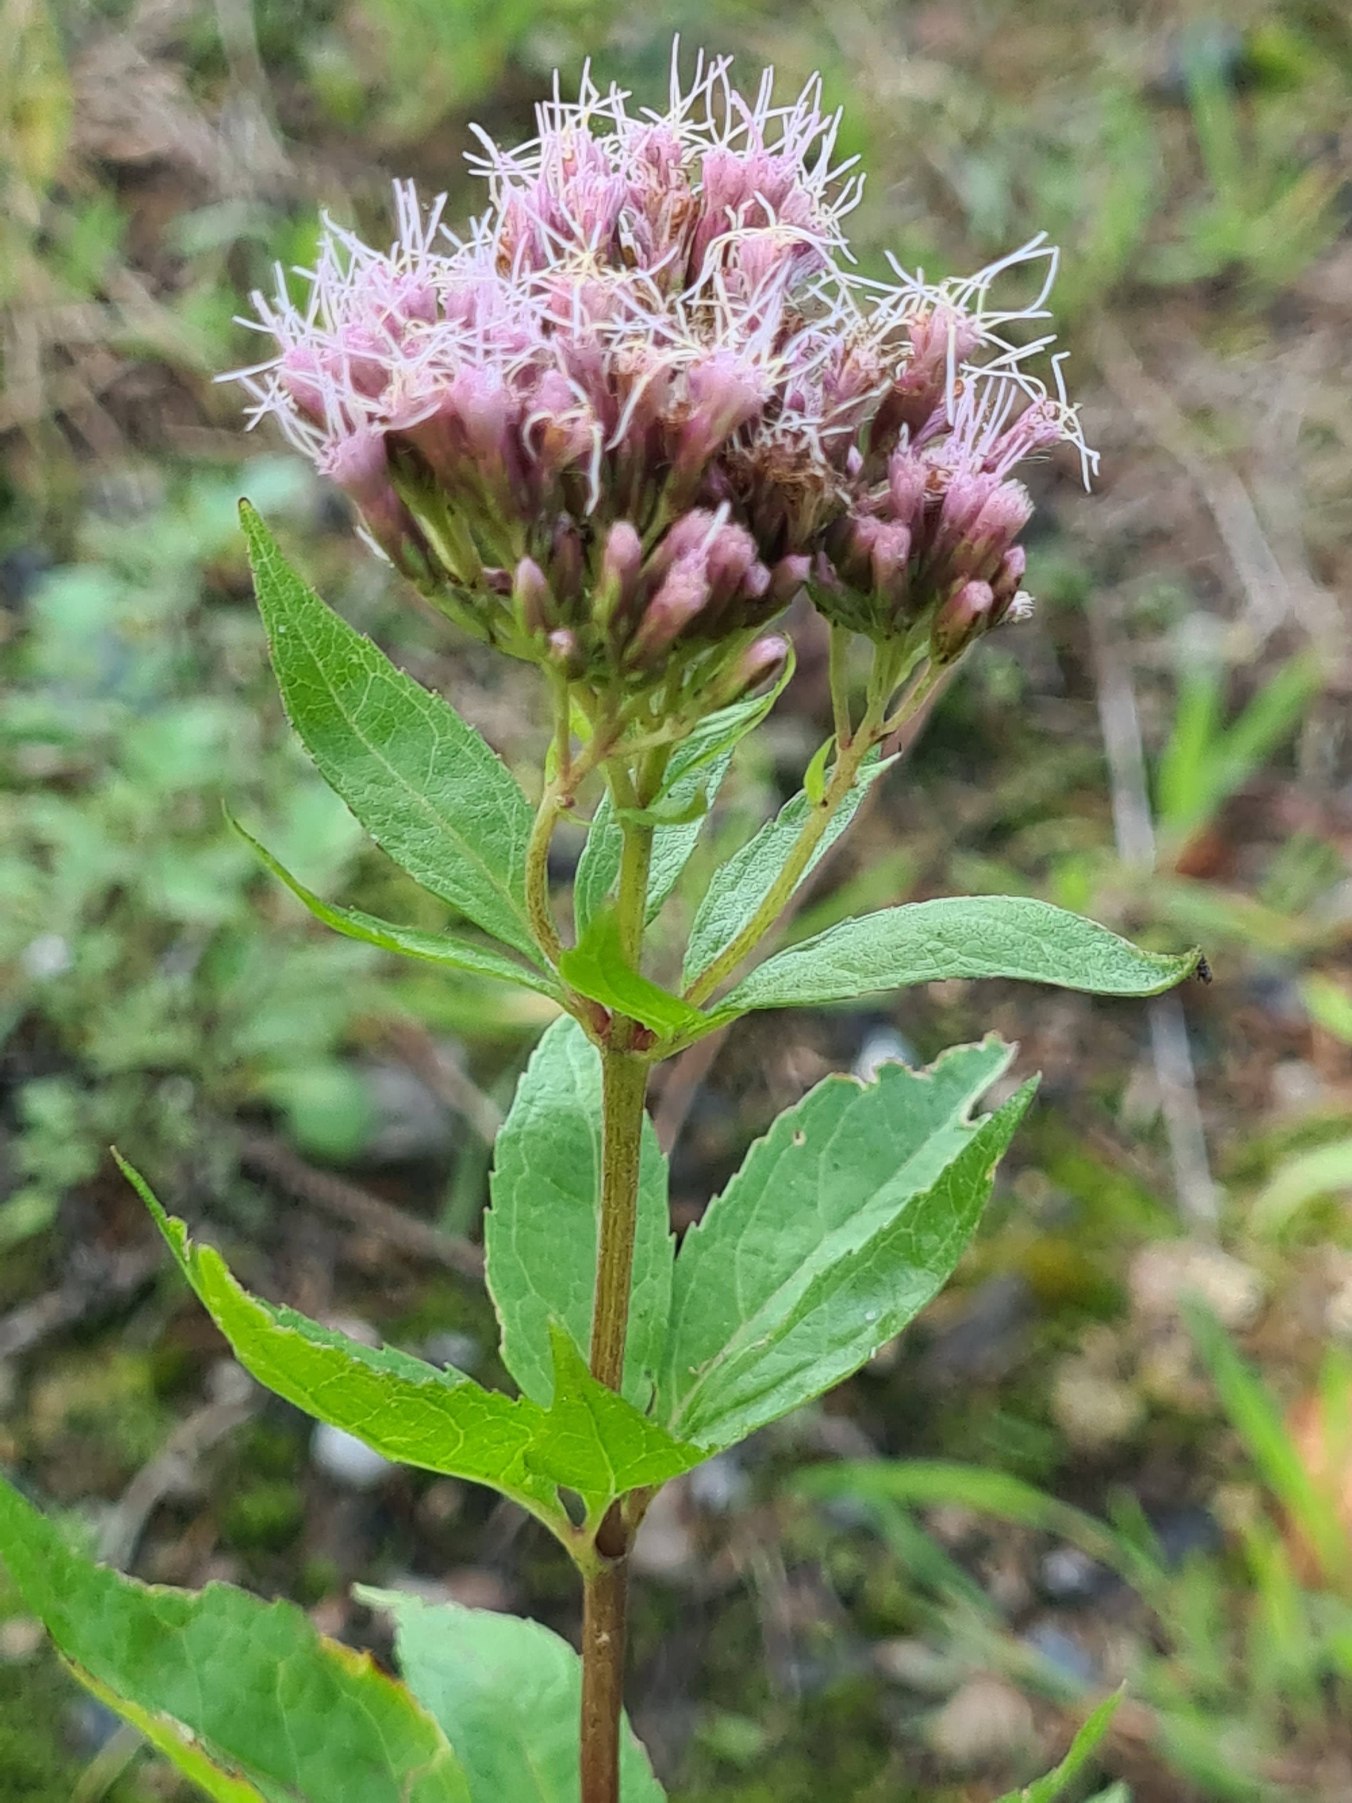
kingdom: Plantae
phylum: Tracheophyta
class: Magnoliopsida
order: Asterales
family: Asteraceae
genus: Eupatorium
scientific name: Eupatorium cannabinum
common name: Hjortetrøst
